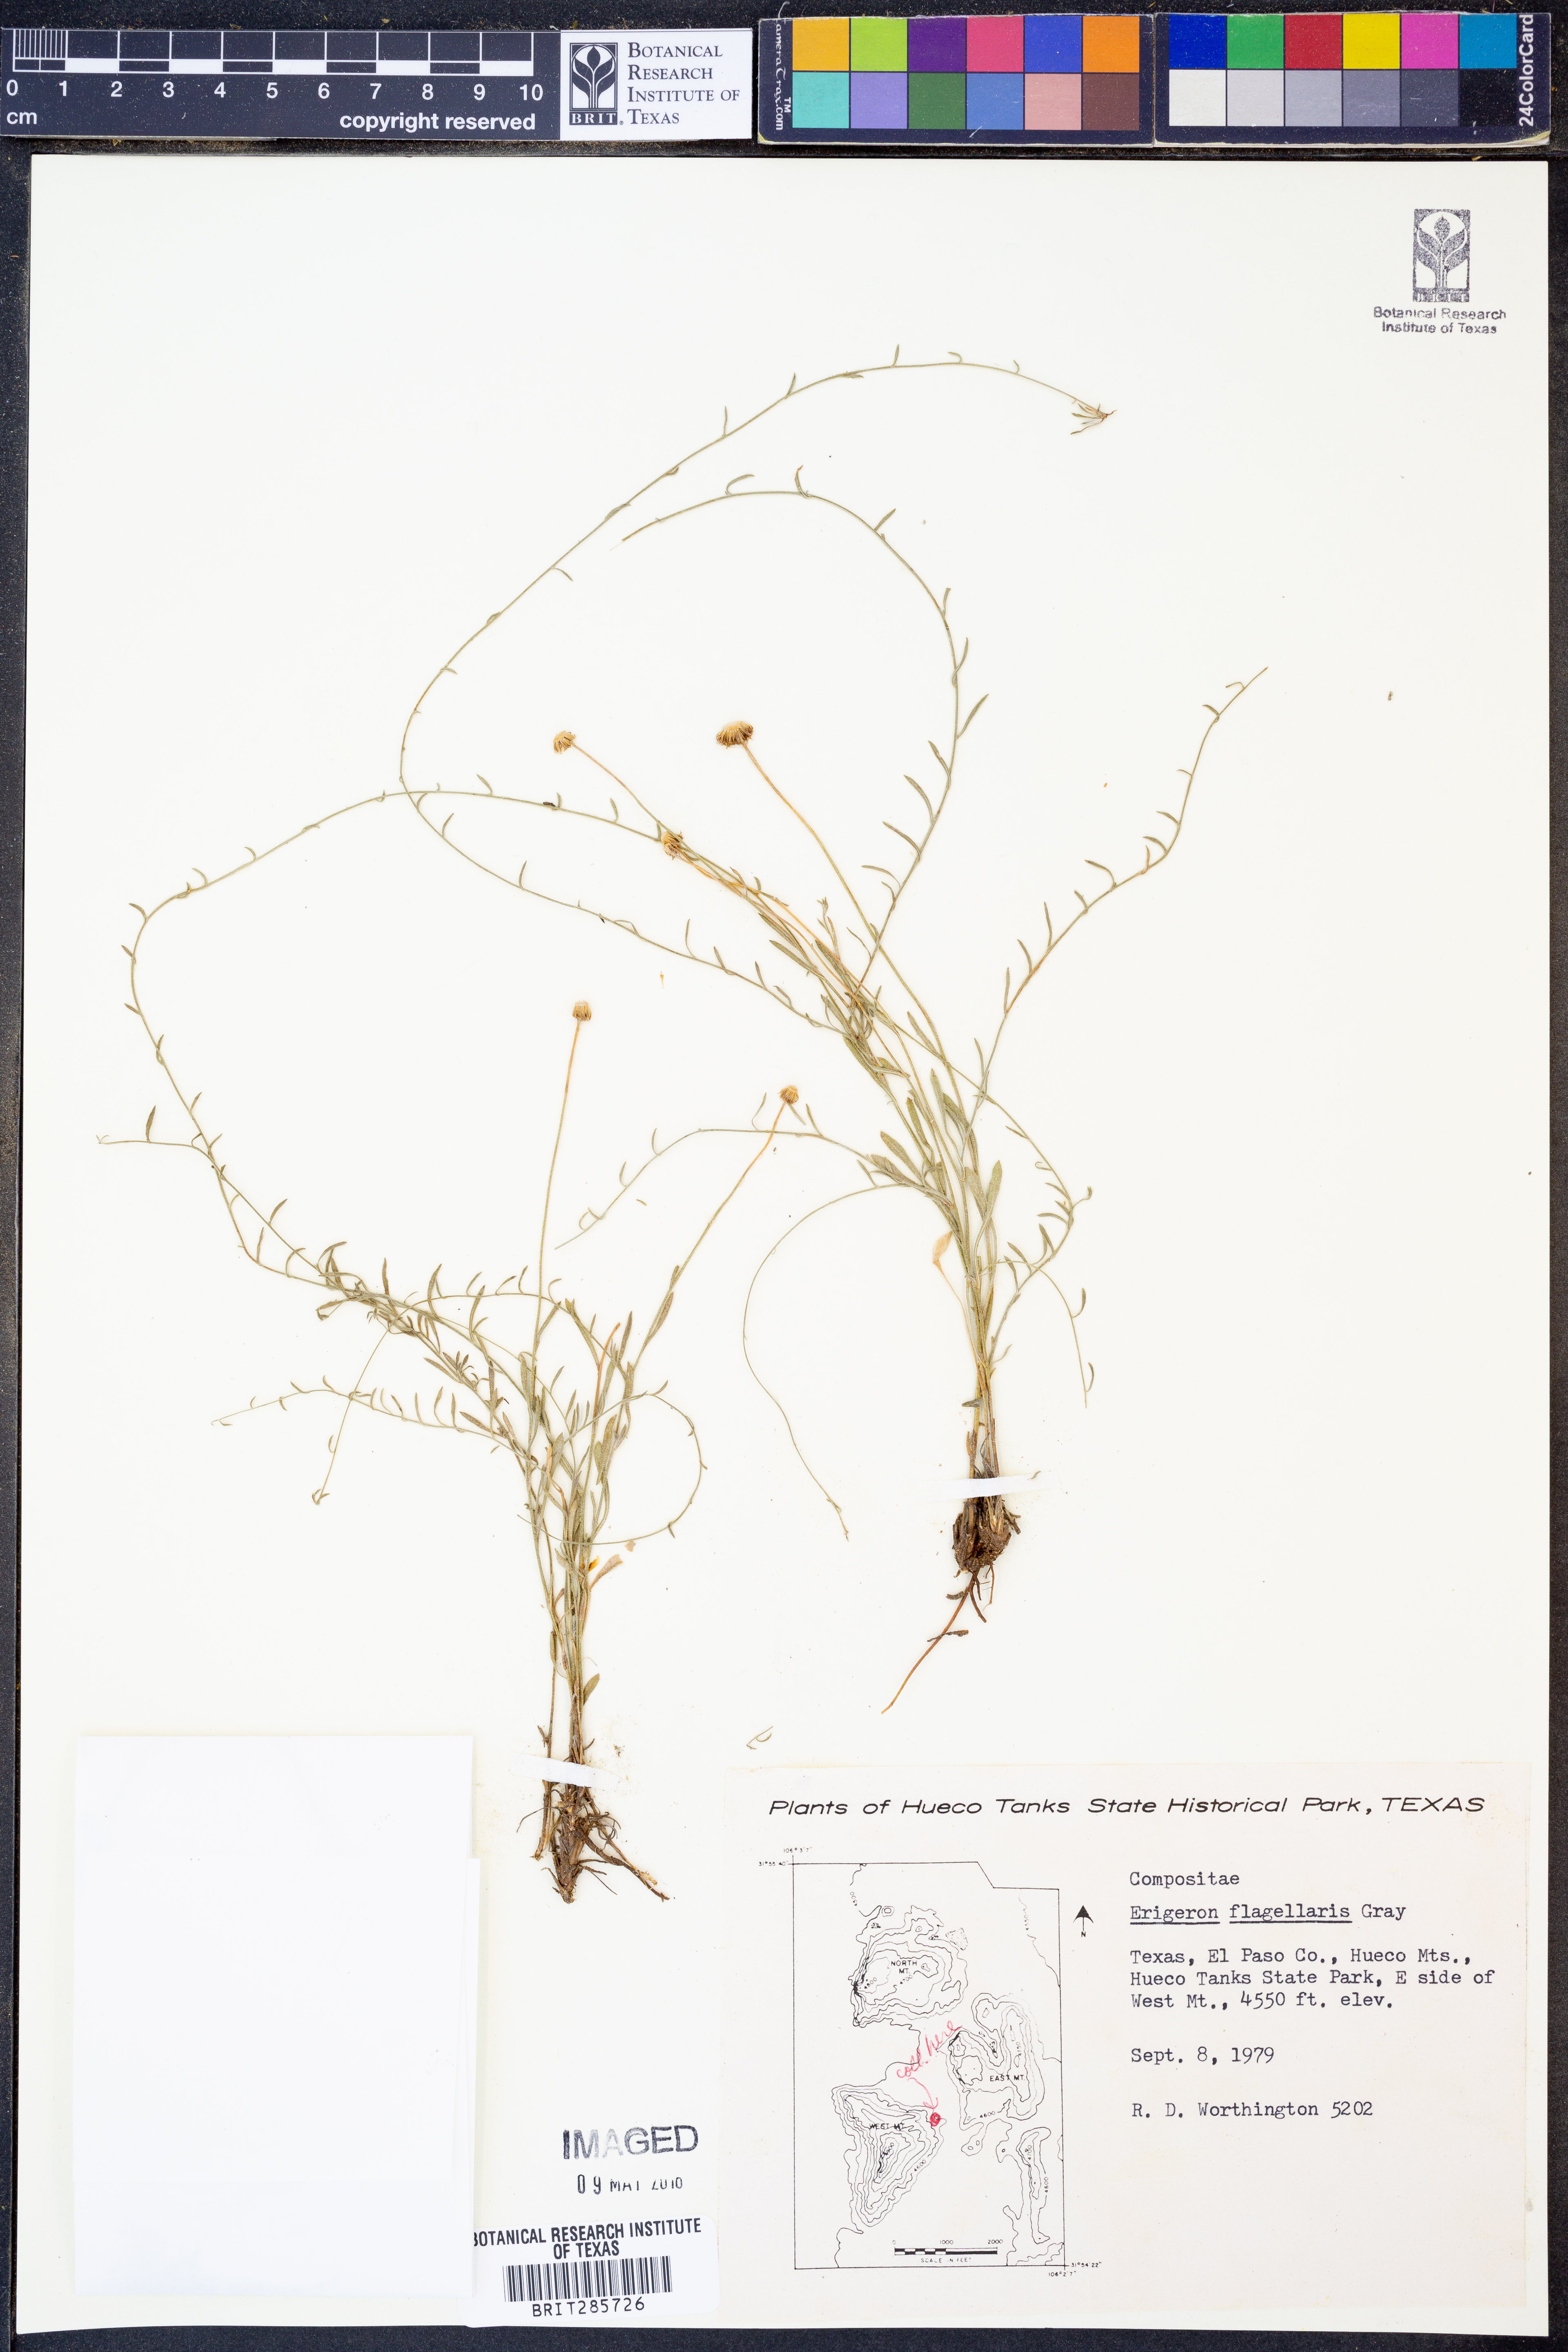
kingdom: Plantae
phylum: Tracheophyta
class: Magnoliopsida
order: Asterales
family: Asteraceae
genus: Erigeron
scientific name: Erigeron flagellaris
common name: Running fleabane
